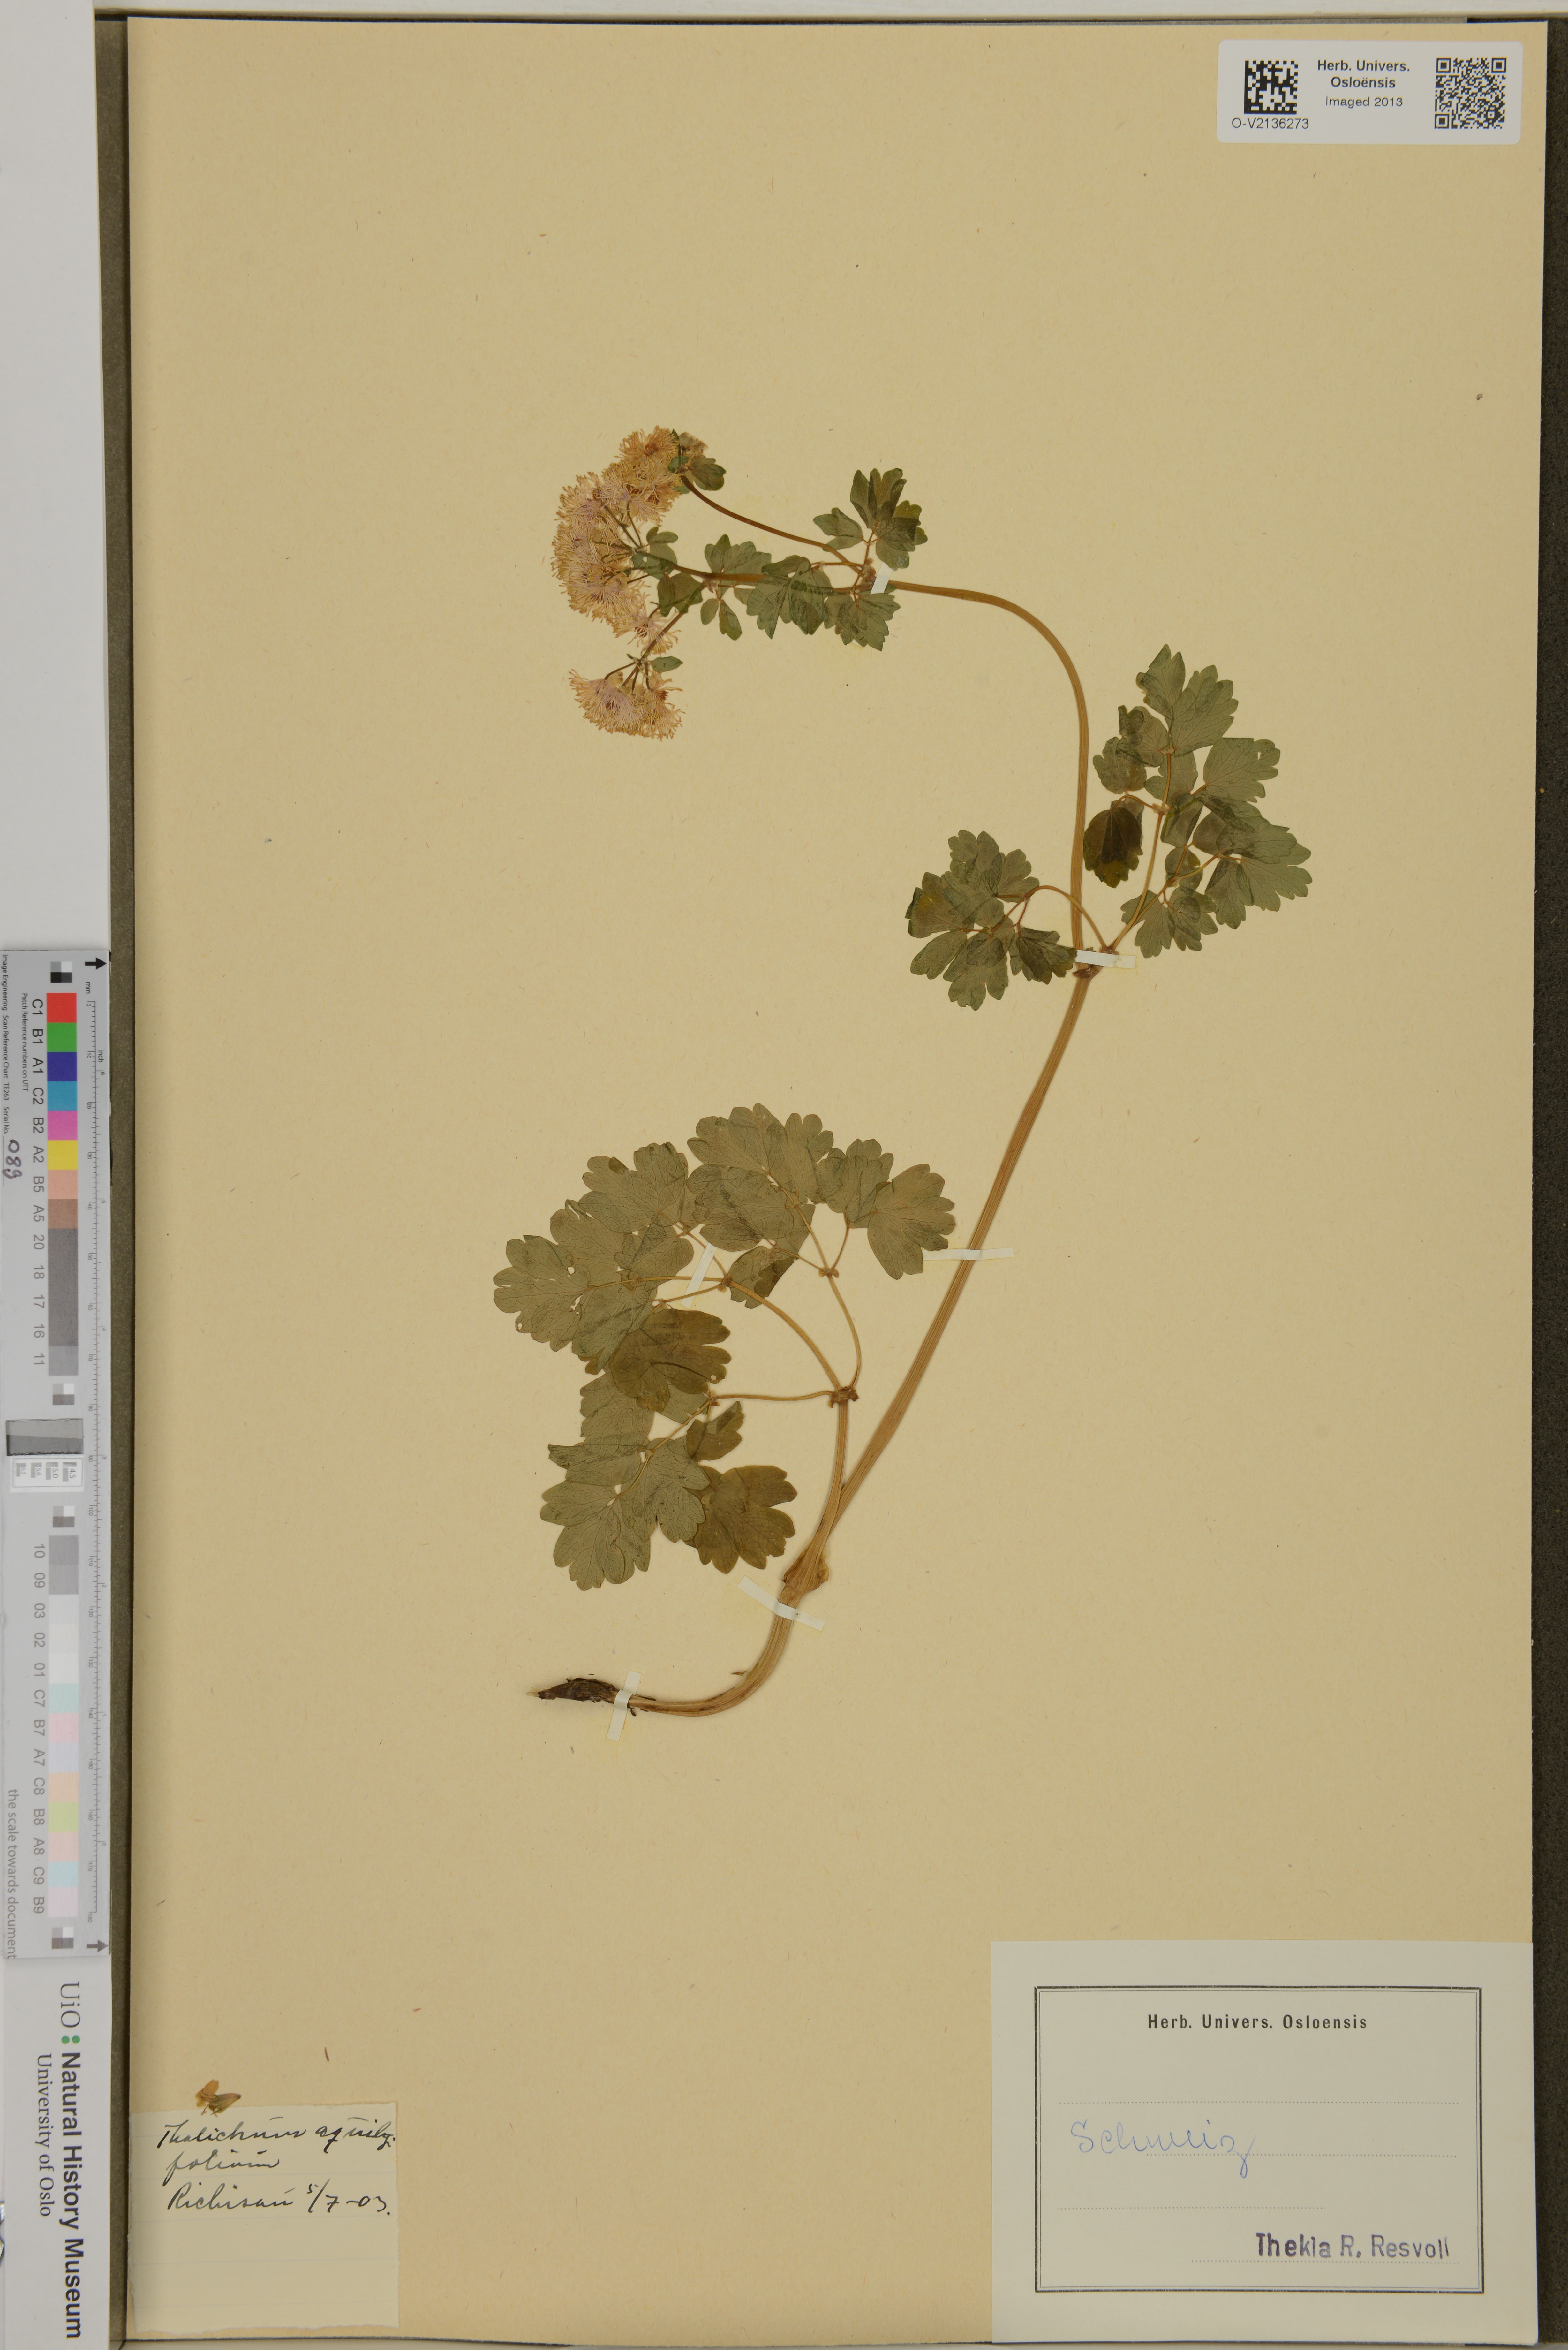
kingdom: Plantae
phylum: Tracheophyta
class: Magnoliopsida
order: Ranunculales
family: Ranunculaceae
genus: Thalictrum
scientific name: Thalictrum aquilegiifolium
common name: French meadow-rue
